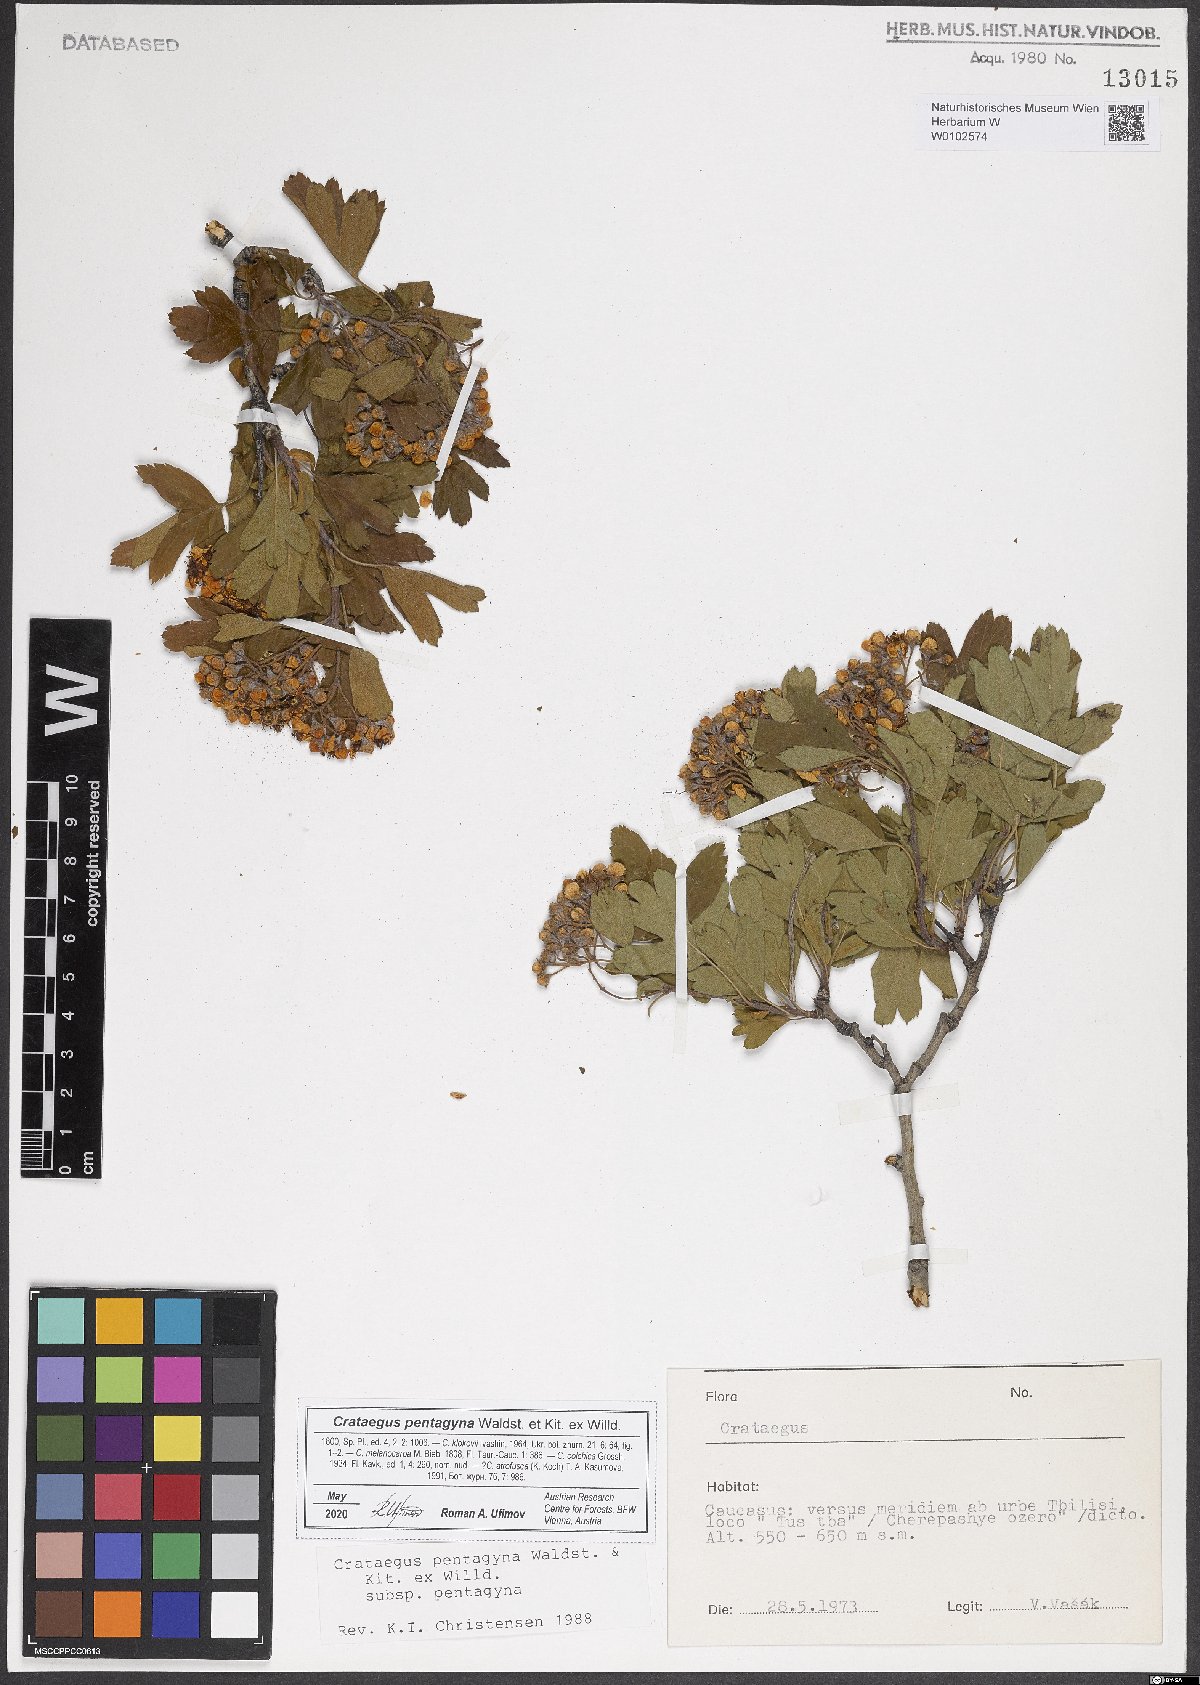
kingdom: Plantae
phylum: Tracheophyta
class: Magnoliopsida
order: Rosales
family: Rosaceae
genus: Crataegus
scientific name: Crataegus pentagyna
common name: Small-flowered black hawthorn
